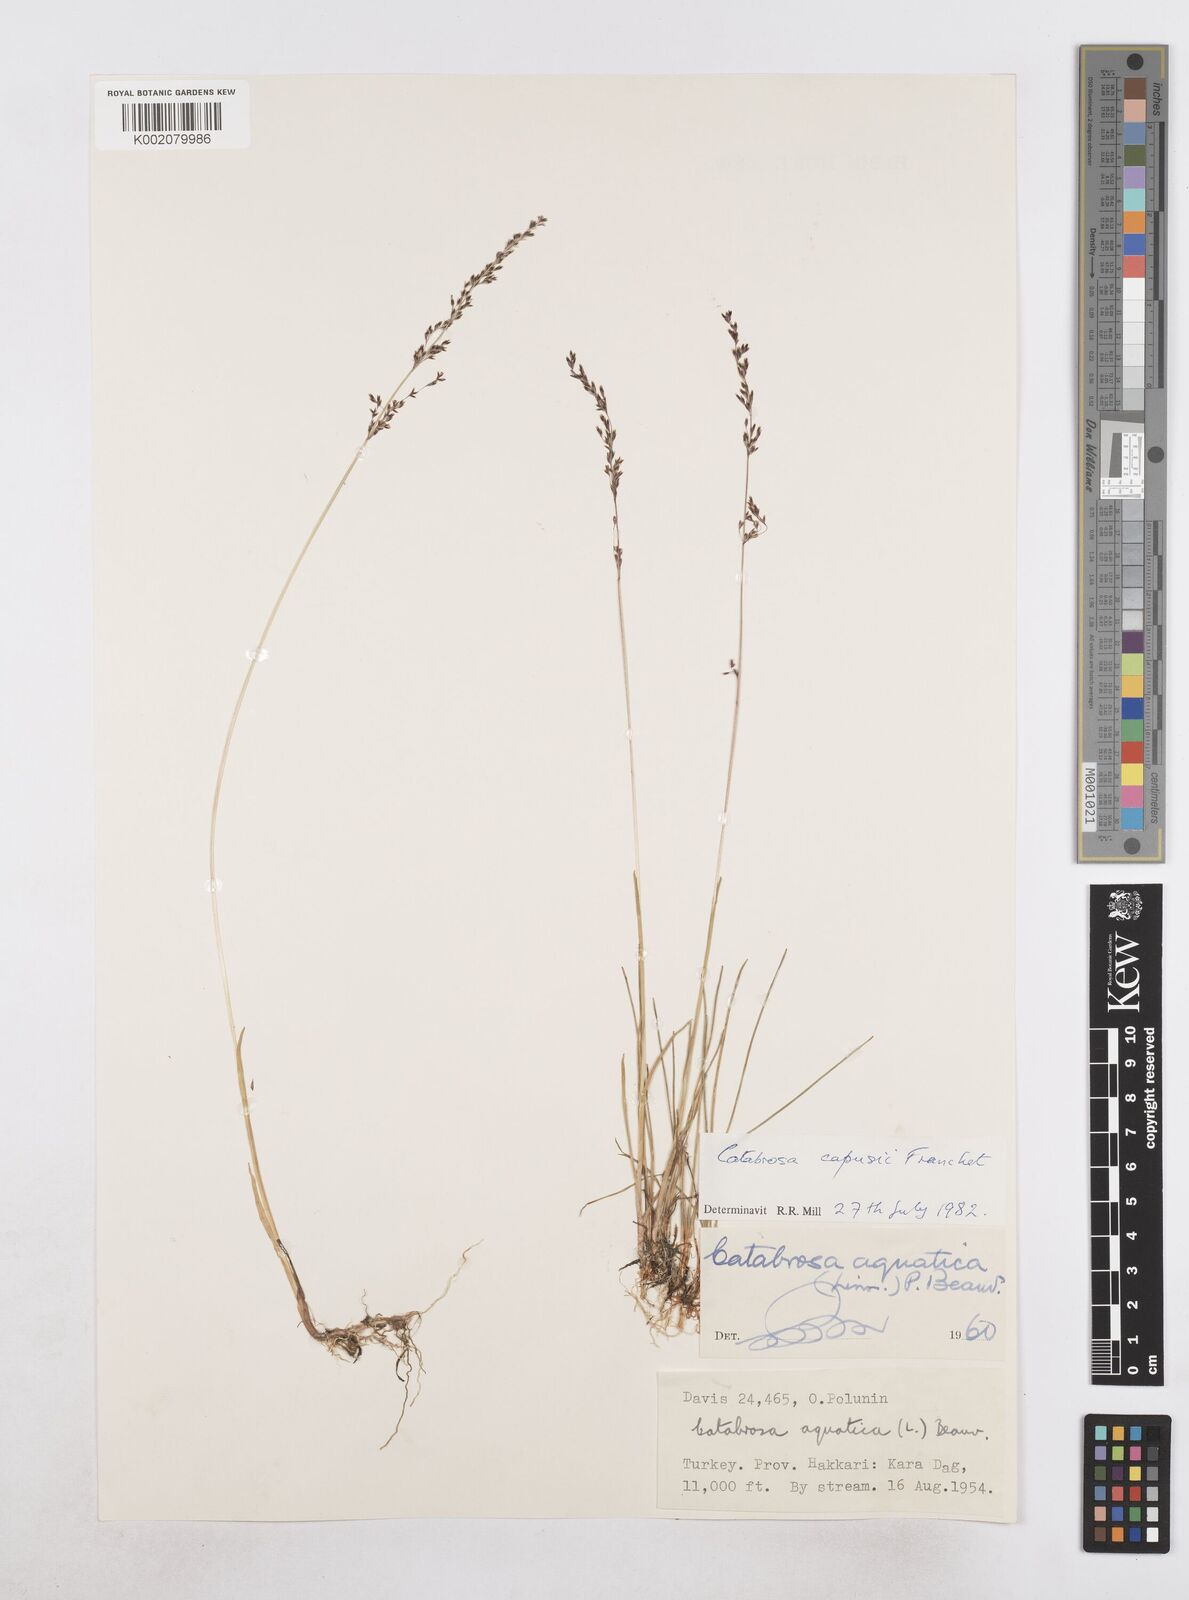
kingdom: Plantae
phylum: Tracheophyta
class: Liliopsida
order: Poales
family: Poaceae
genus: Catabrosa
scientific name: Catabrosa aquatica
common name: Whorl-grass
